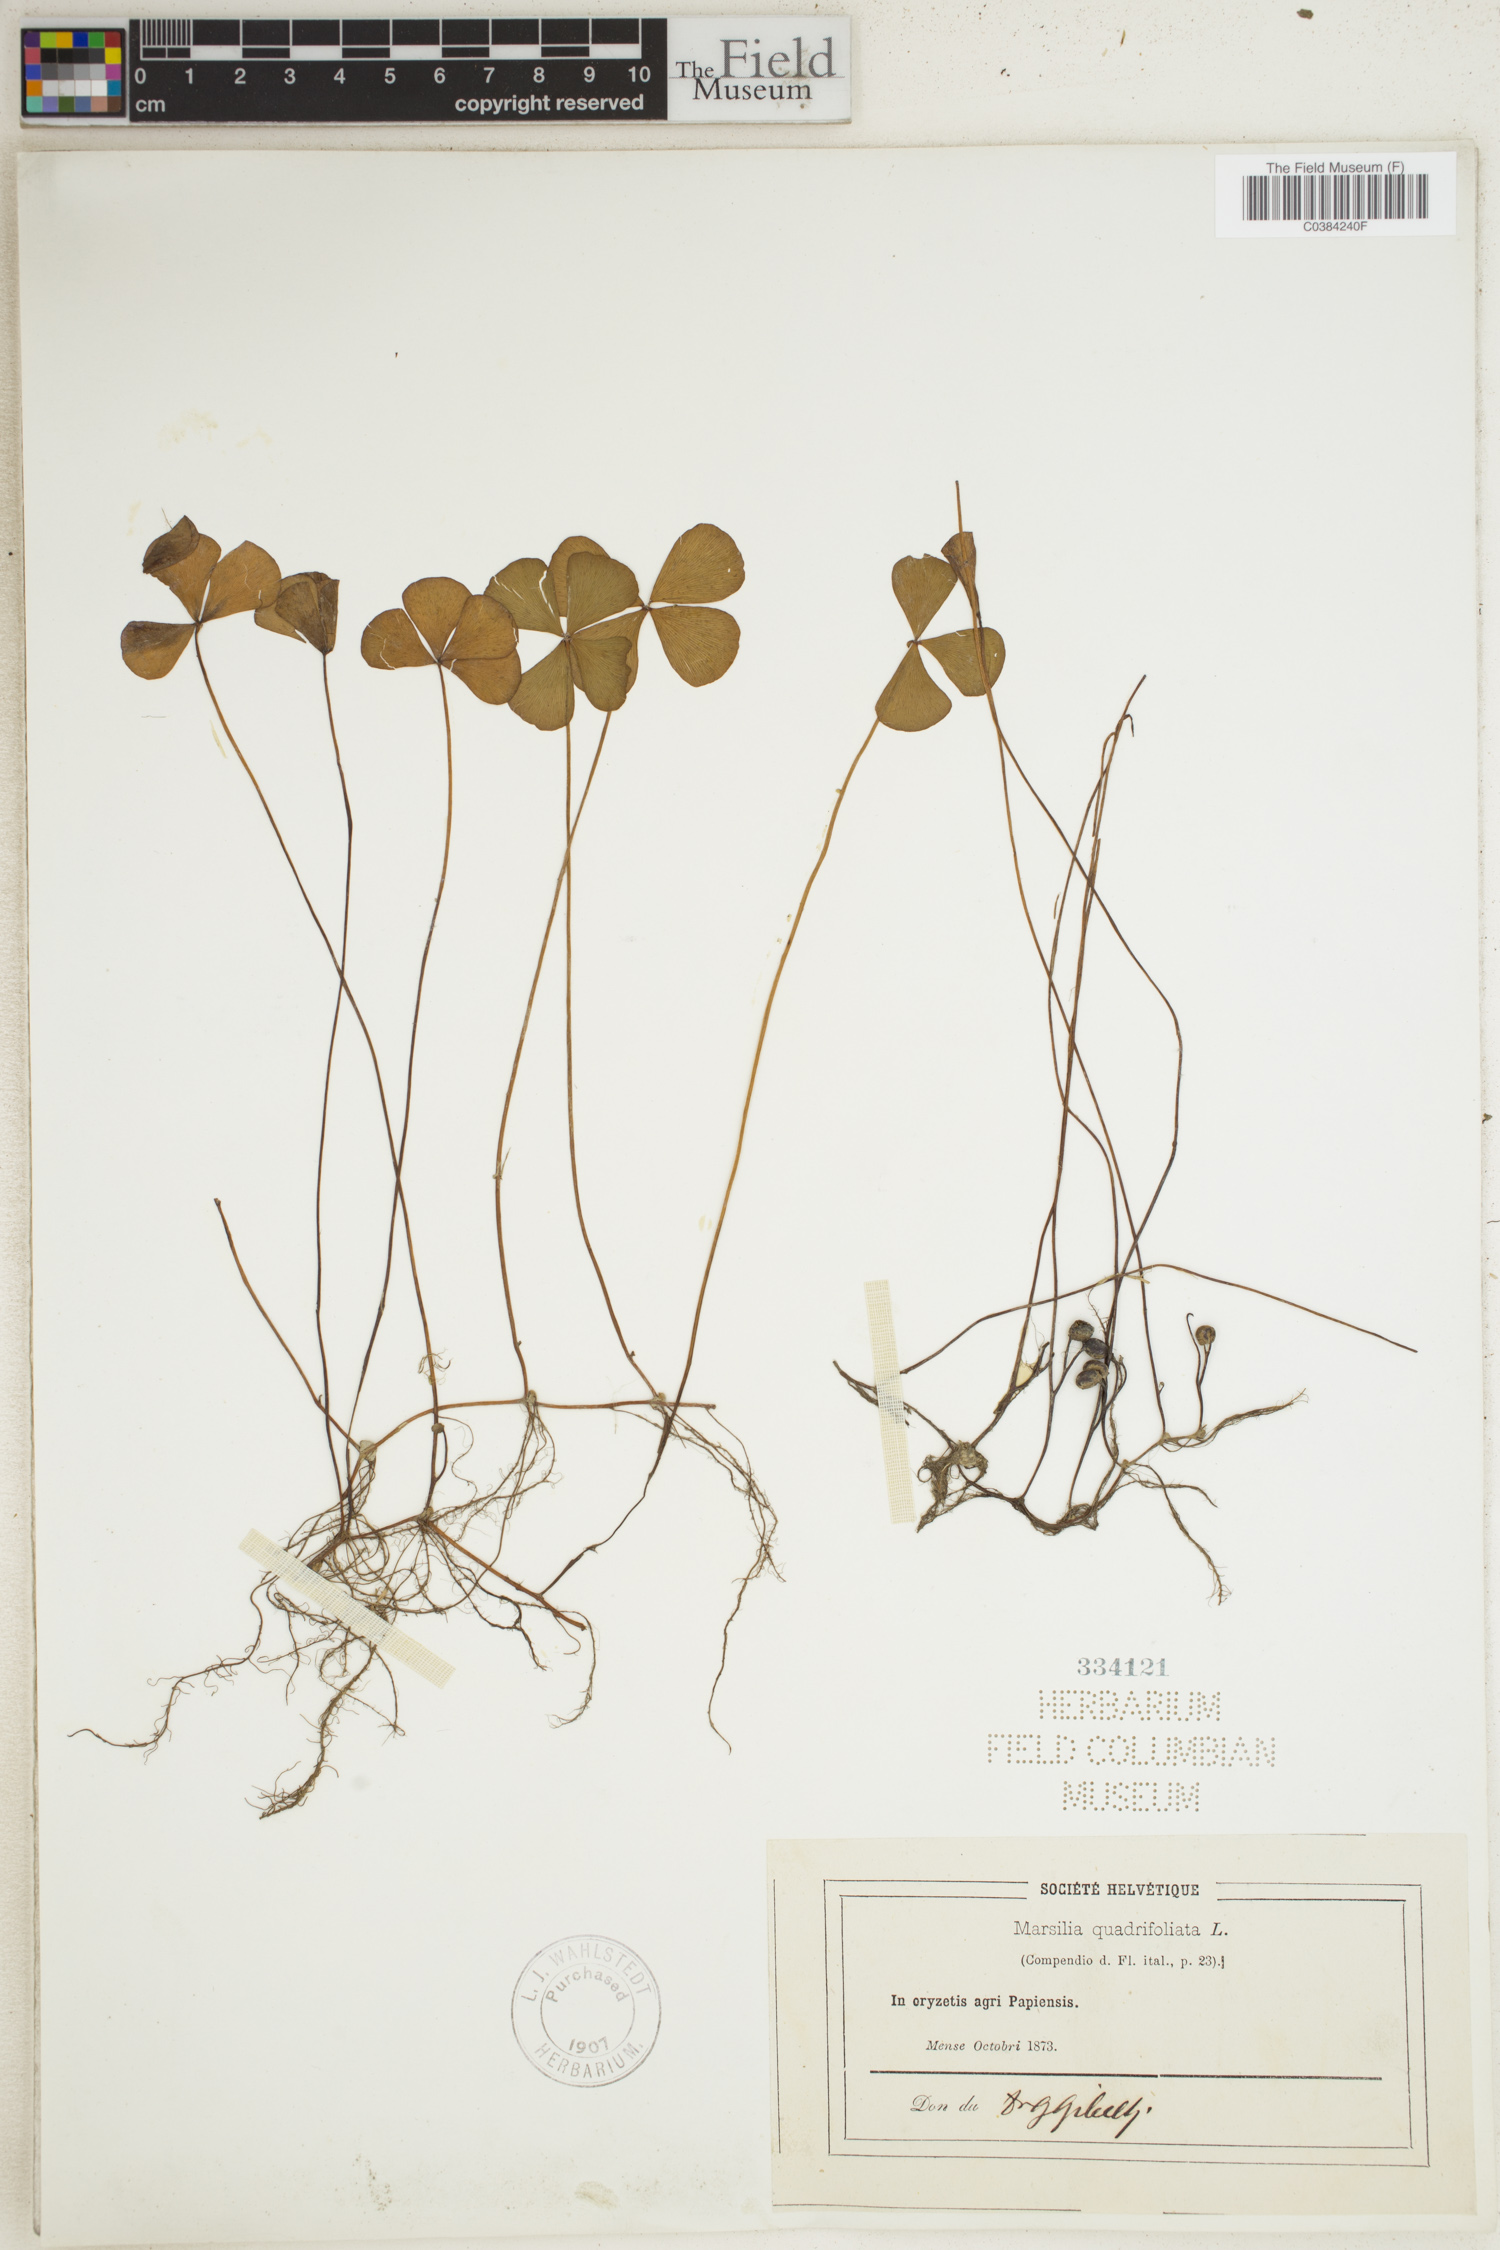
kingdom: Plantae
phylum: Tracheophyta
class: Polypodiopsida
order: Salviniales
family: Marsileaceae
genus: Marsilea
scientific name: Marsilea quadrifolia
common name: Water shamrock
